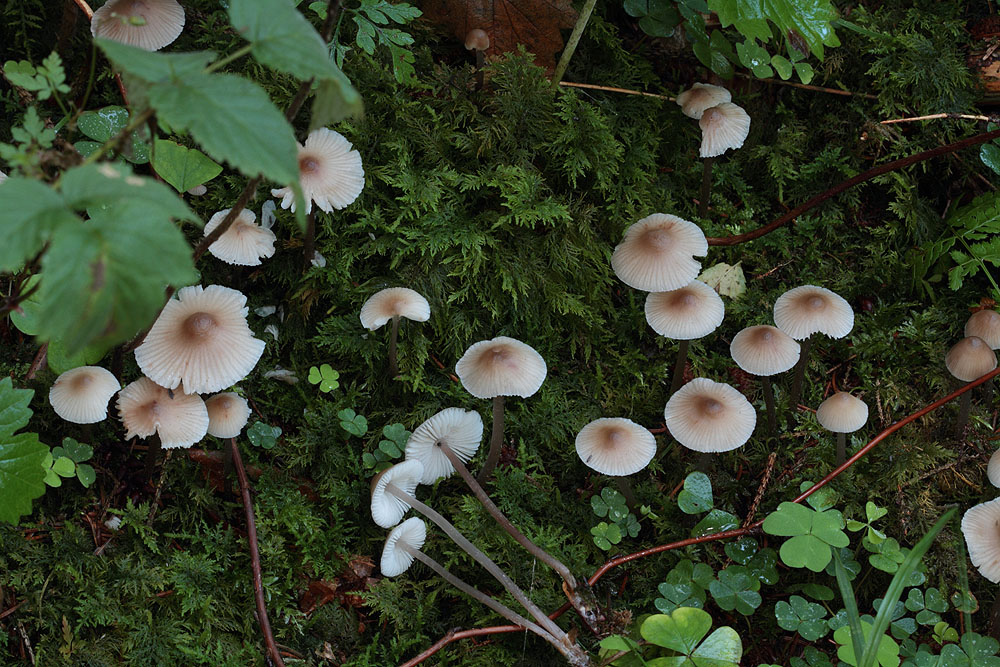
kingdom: Fungi
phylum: Basidiomycota
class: Agaricomycetes
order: Agaricales
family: Mycenaceae
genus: Mycena
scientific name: Mycena zephirus
